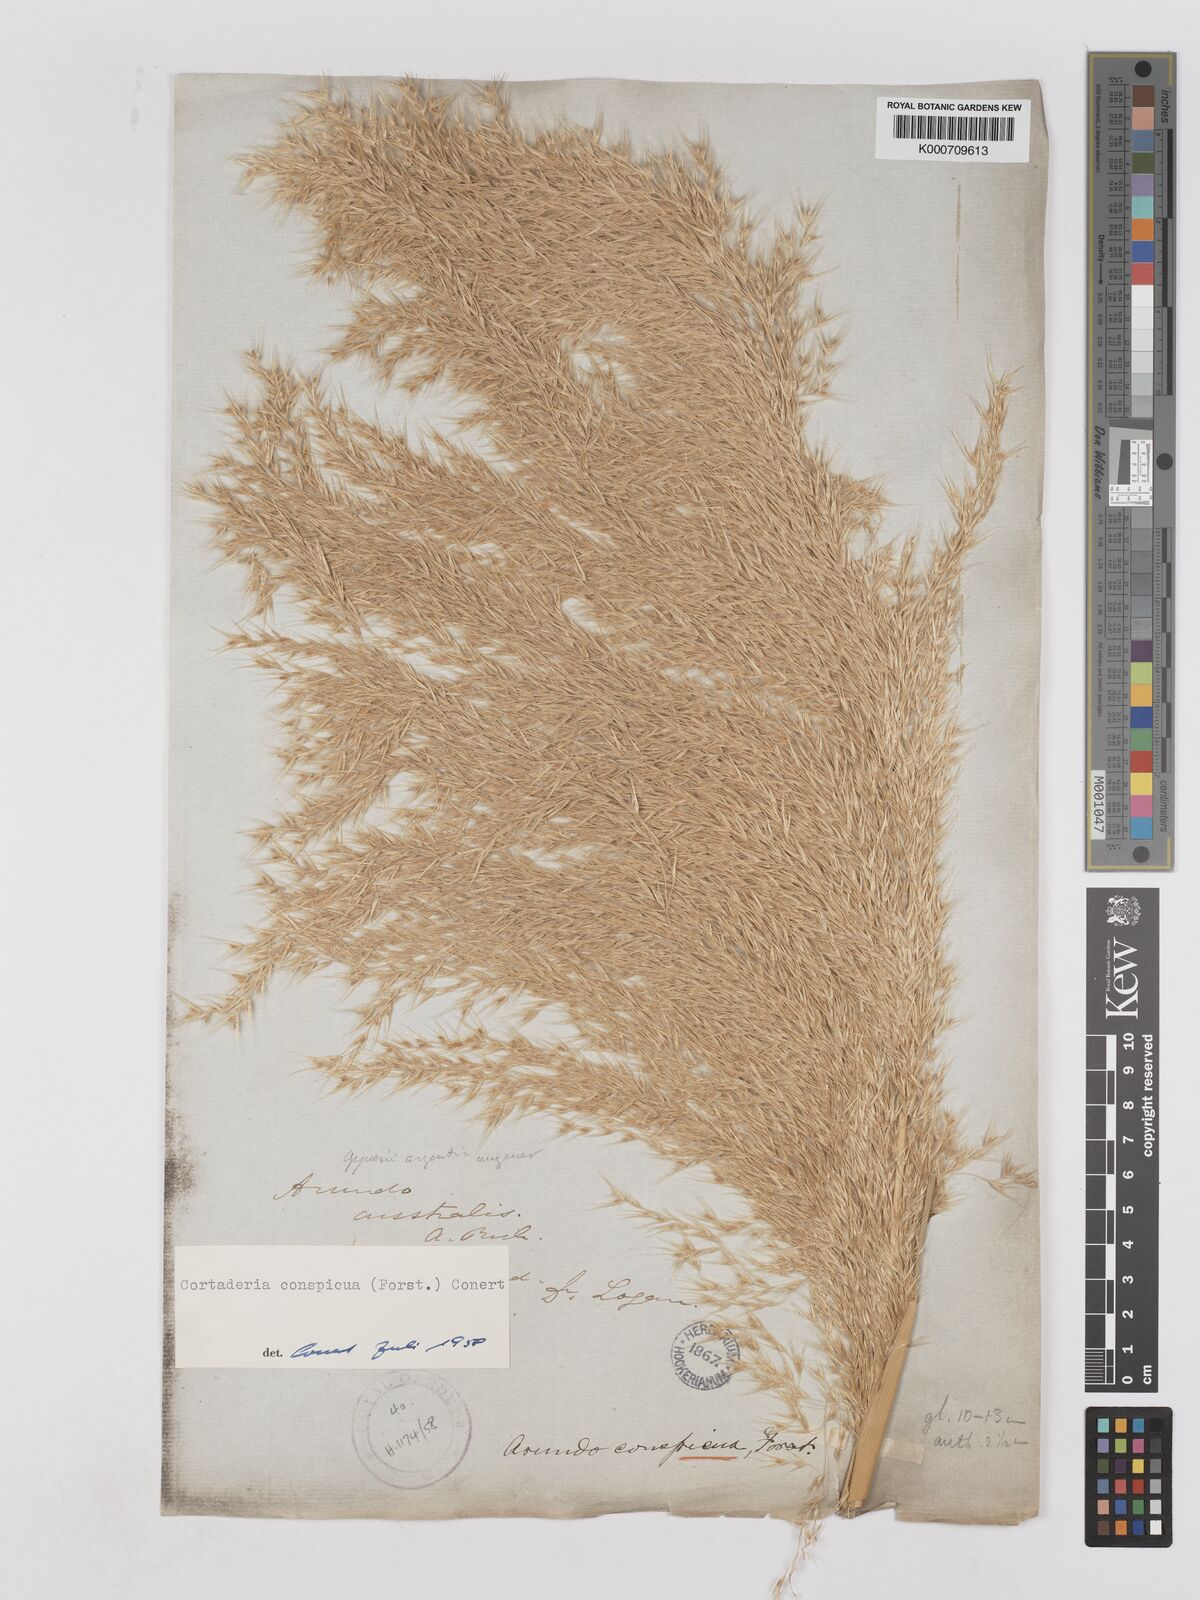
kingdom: Plantae
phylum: Tracheophyta
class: Liliopsida
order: Poales
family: Poaceae
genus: Austroderia
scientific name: Austroderia richardii
